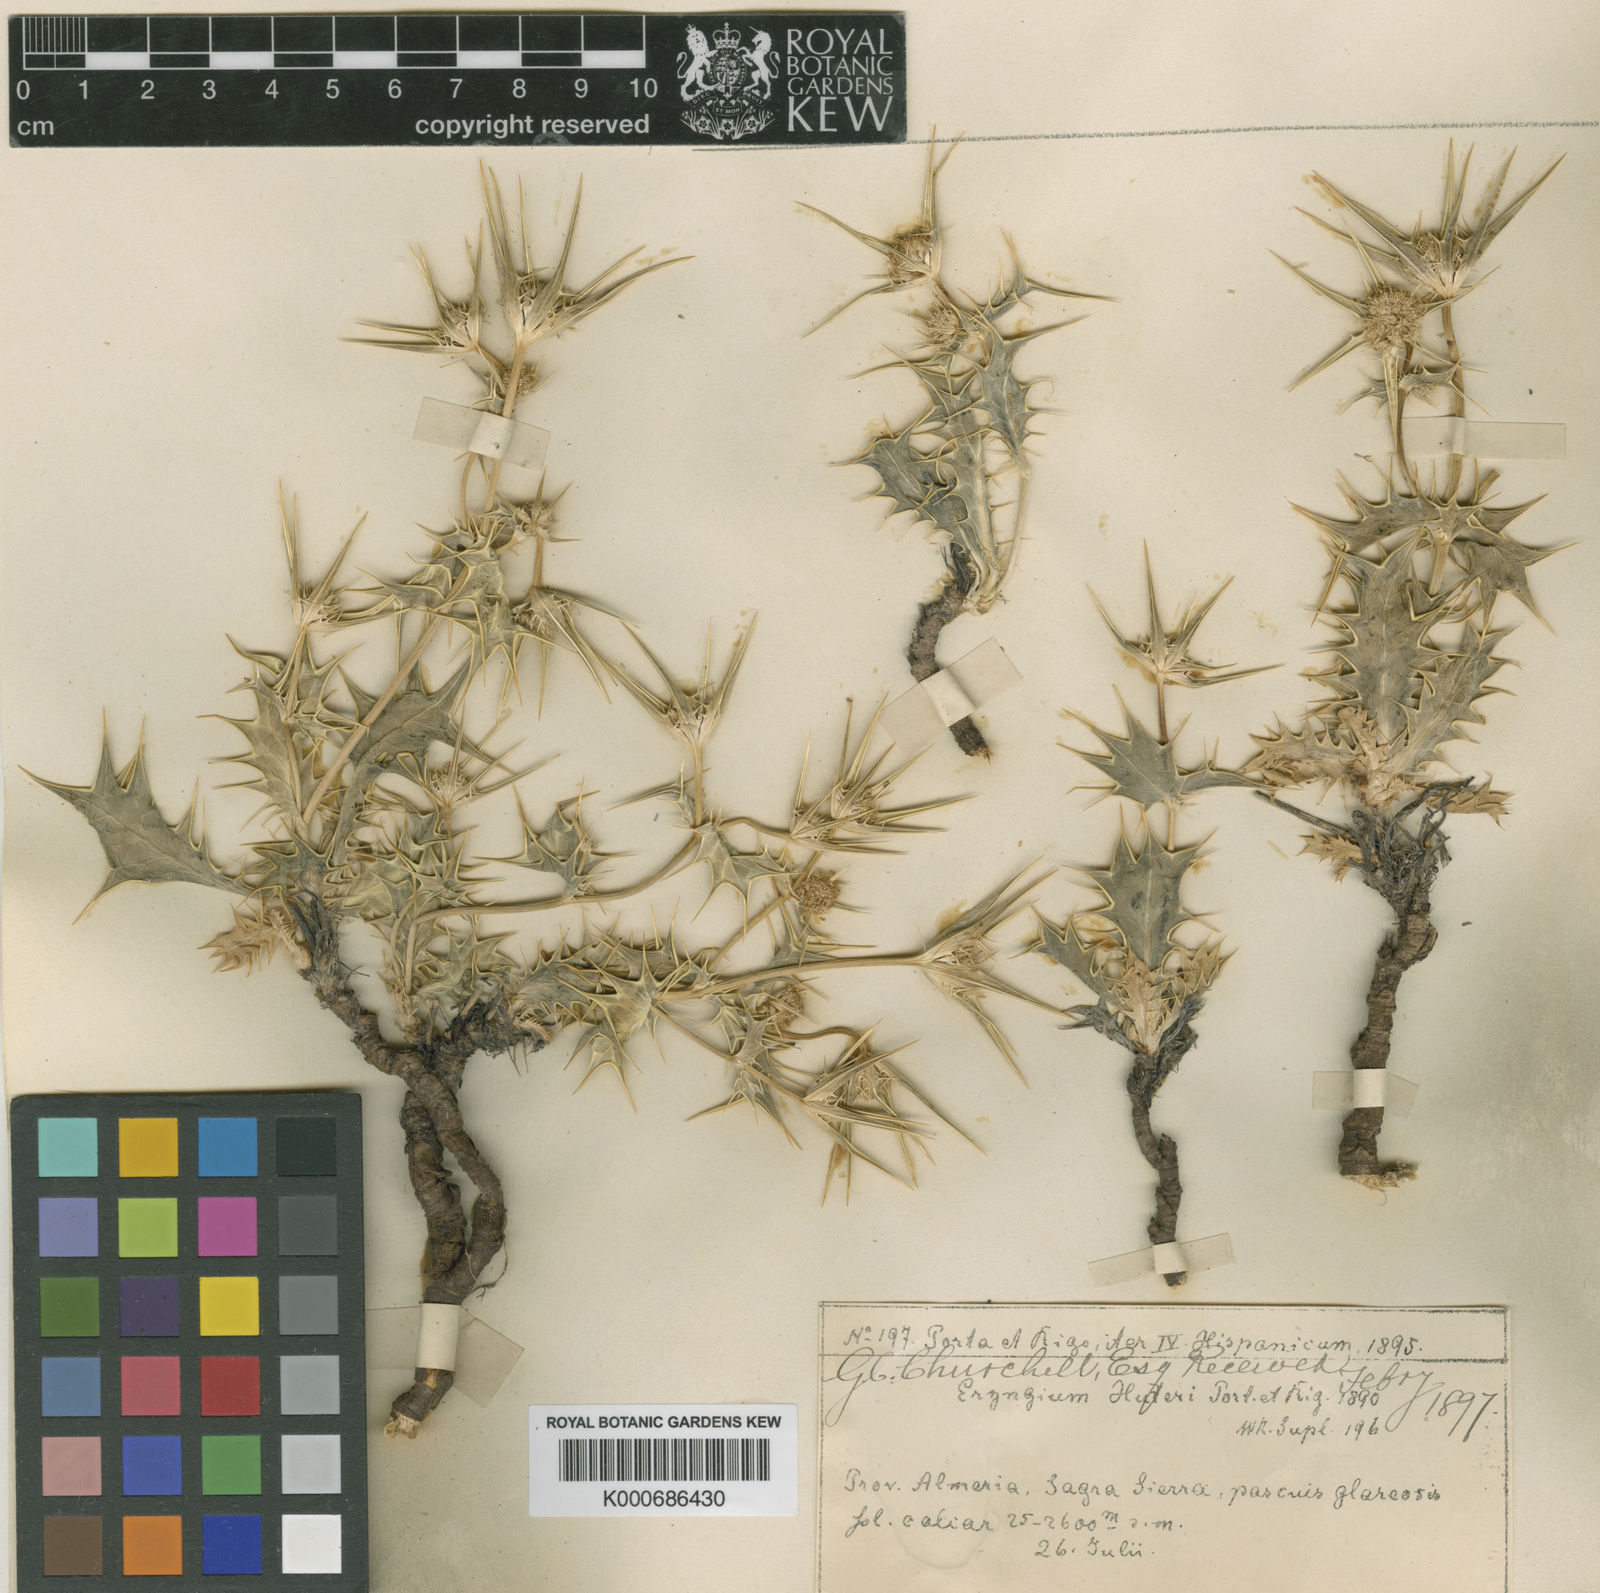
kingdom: Plantae
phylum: Tracheophyta
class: Magnoliopsida
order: Apiales
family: Apiaceae
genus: Eryngium
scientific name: Eryngium aquifolium
